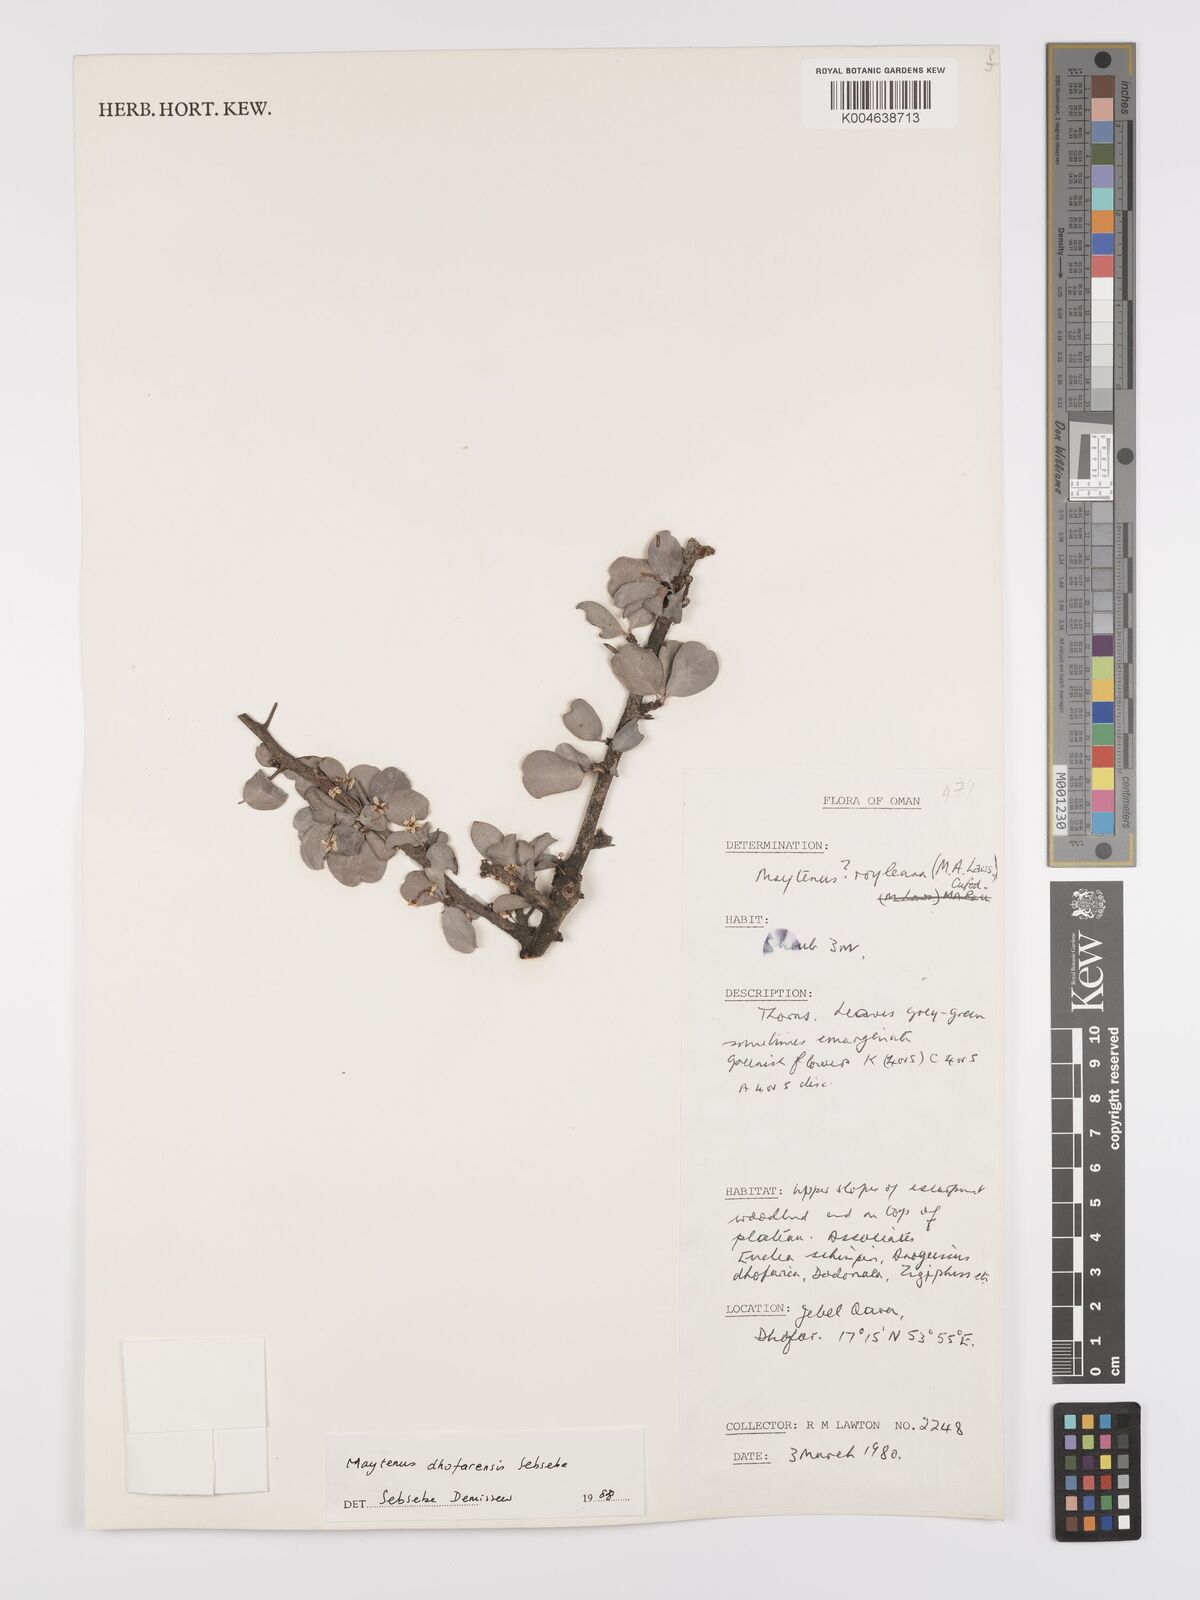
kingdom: Plantae
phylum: Tracheophyta
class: Magnoliopsida
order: Celastrales
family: Celastraceae
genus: Gymnosporia
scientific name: Gymnosporia dhofarensis
